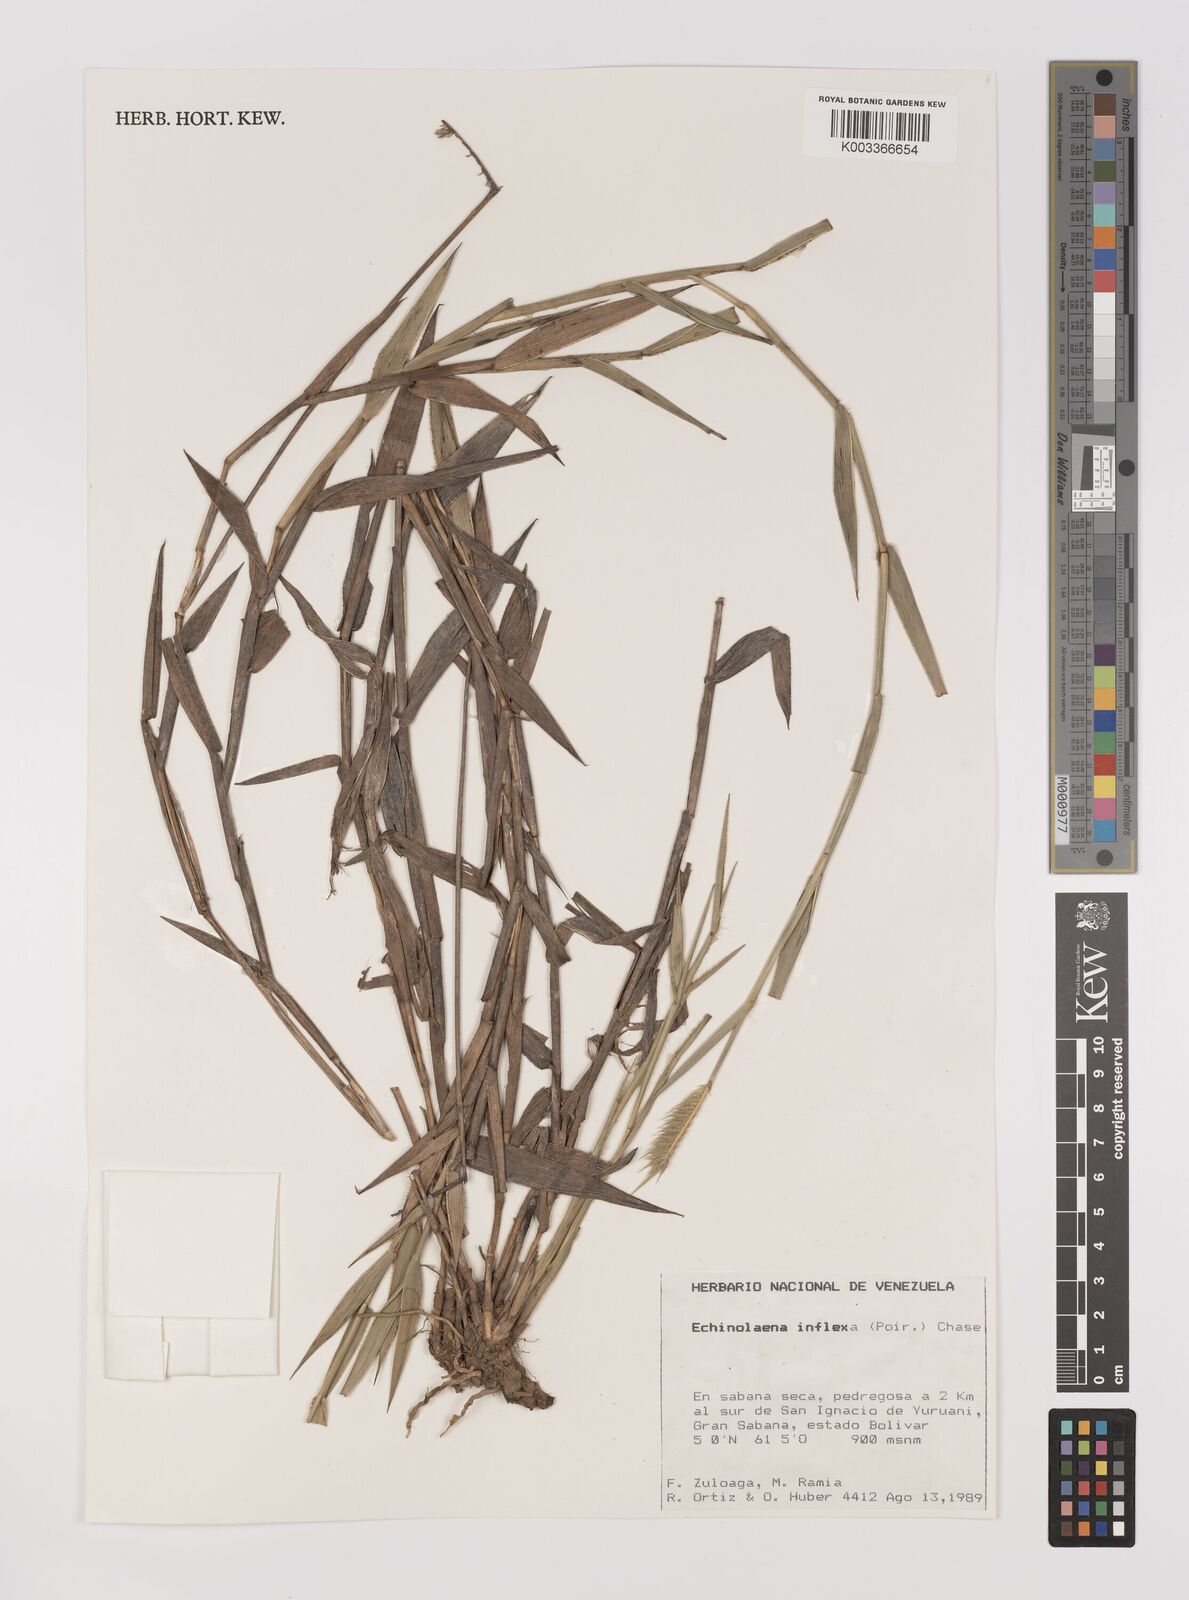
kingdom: Plantae
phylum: Tracheophyta
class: Liliopsida
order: Poales
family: Poaceae
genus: Echinolaena
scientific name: Echinolaena inflexa
